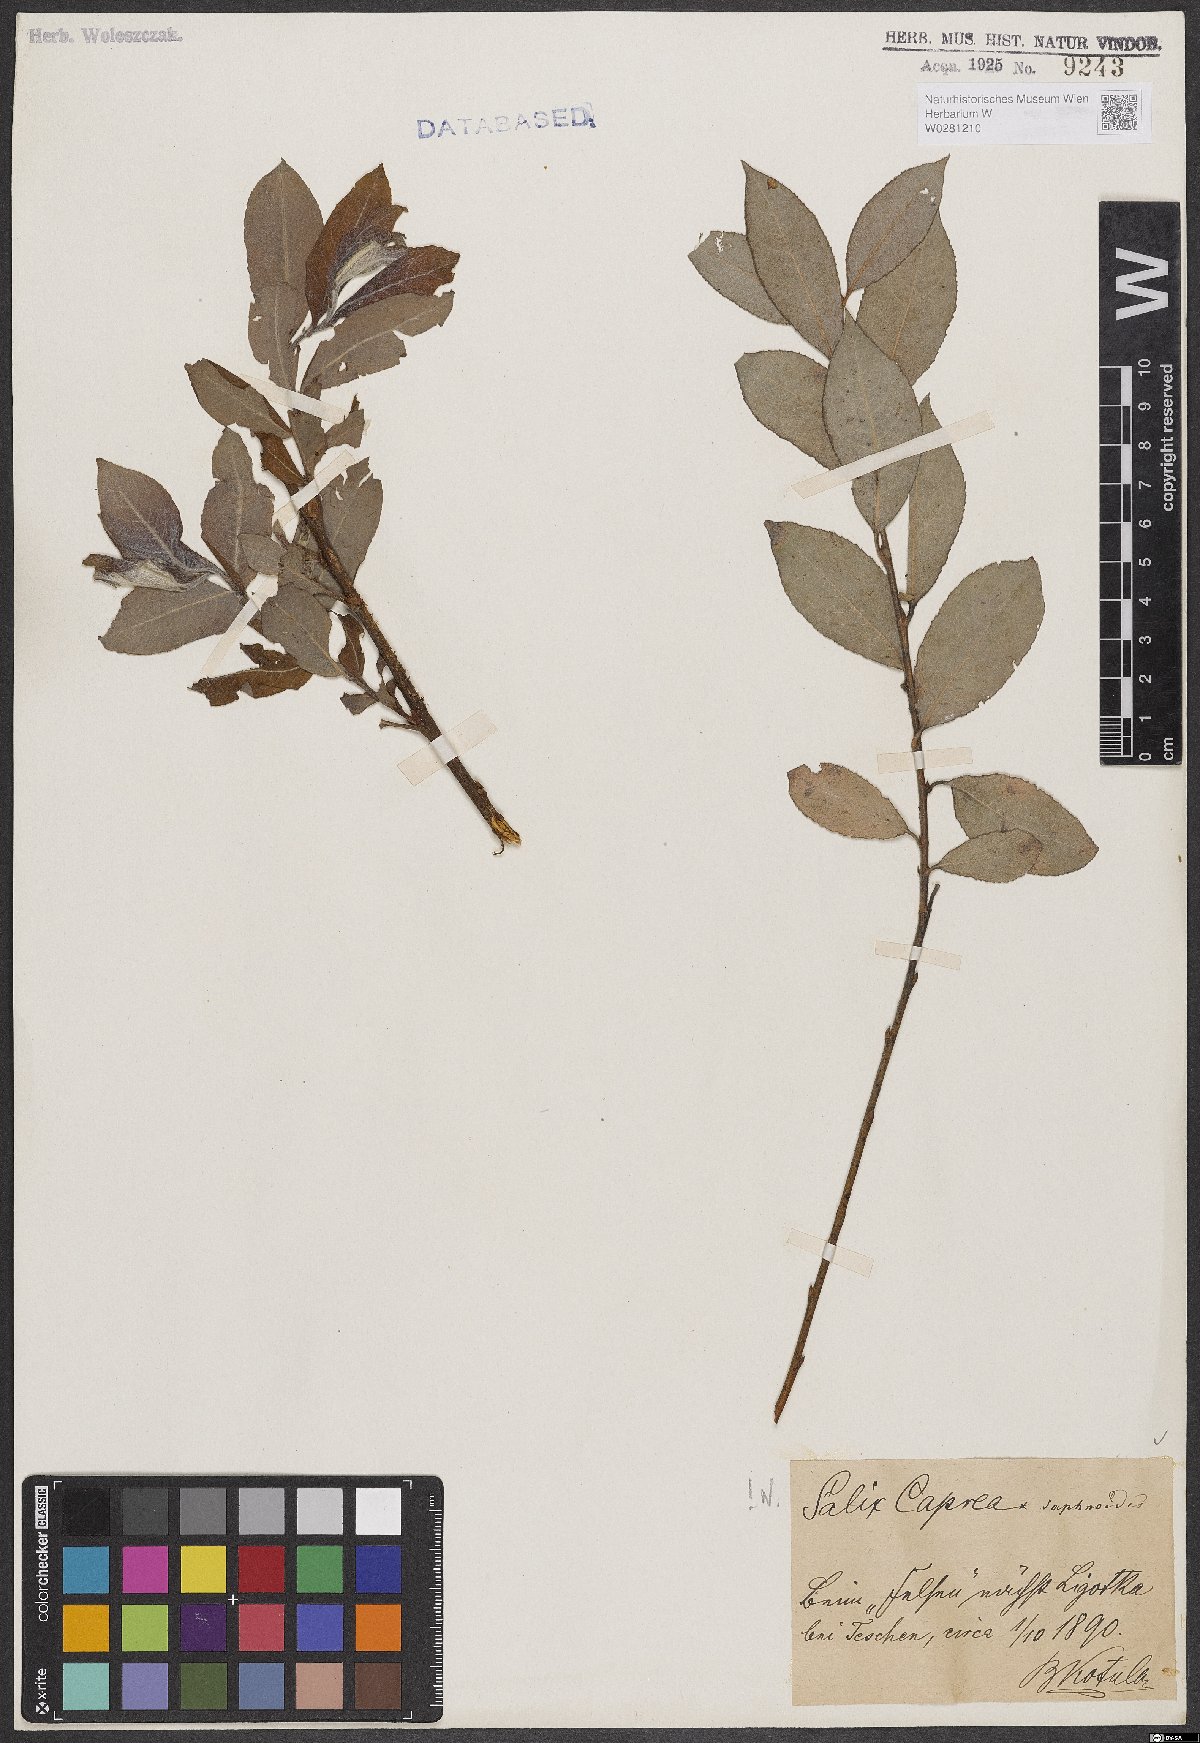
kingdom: Plantae
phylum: Tracheophyta
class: Magnoliopsida
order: Malpighiales
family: Salicaceae
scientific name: Salicaceae
